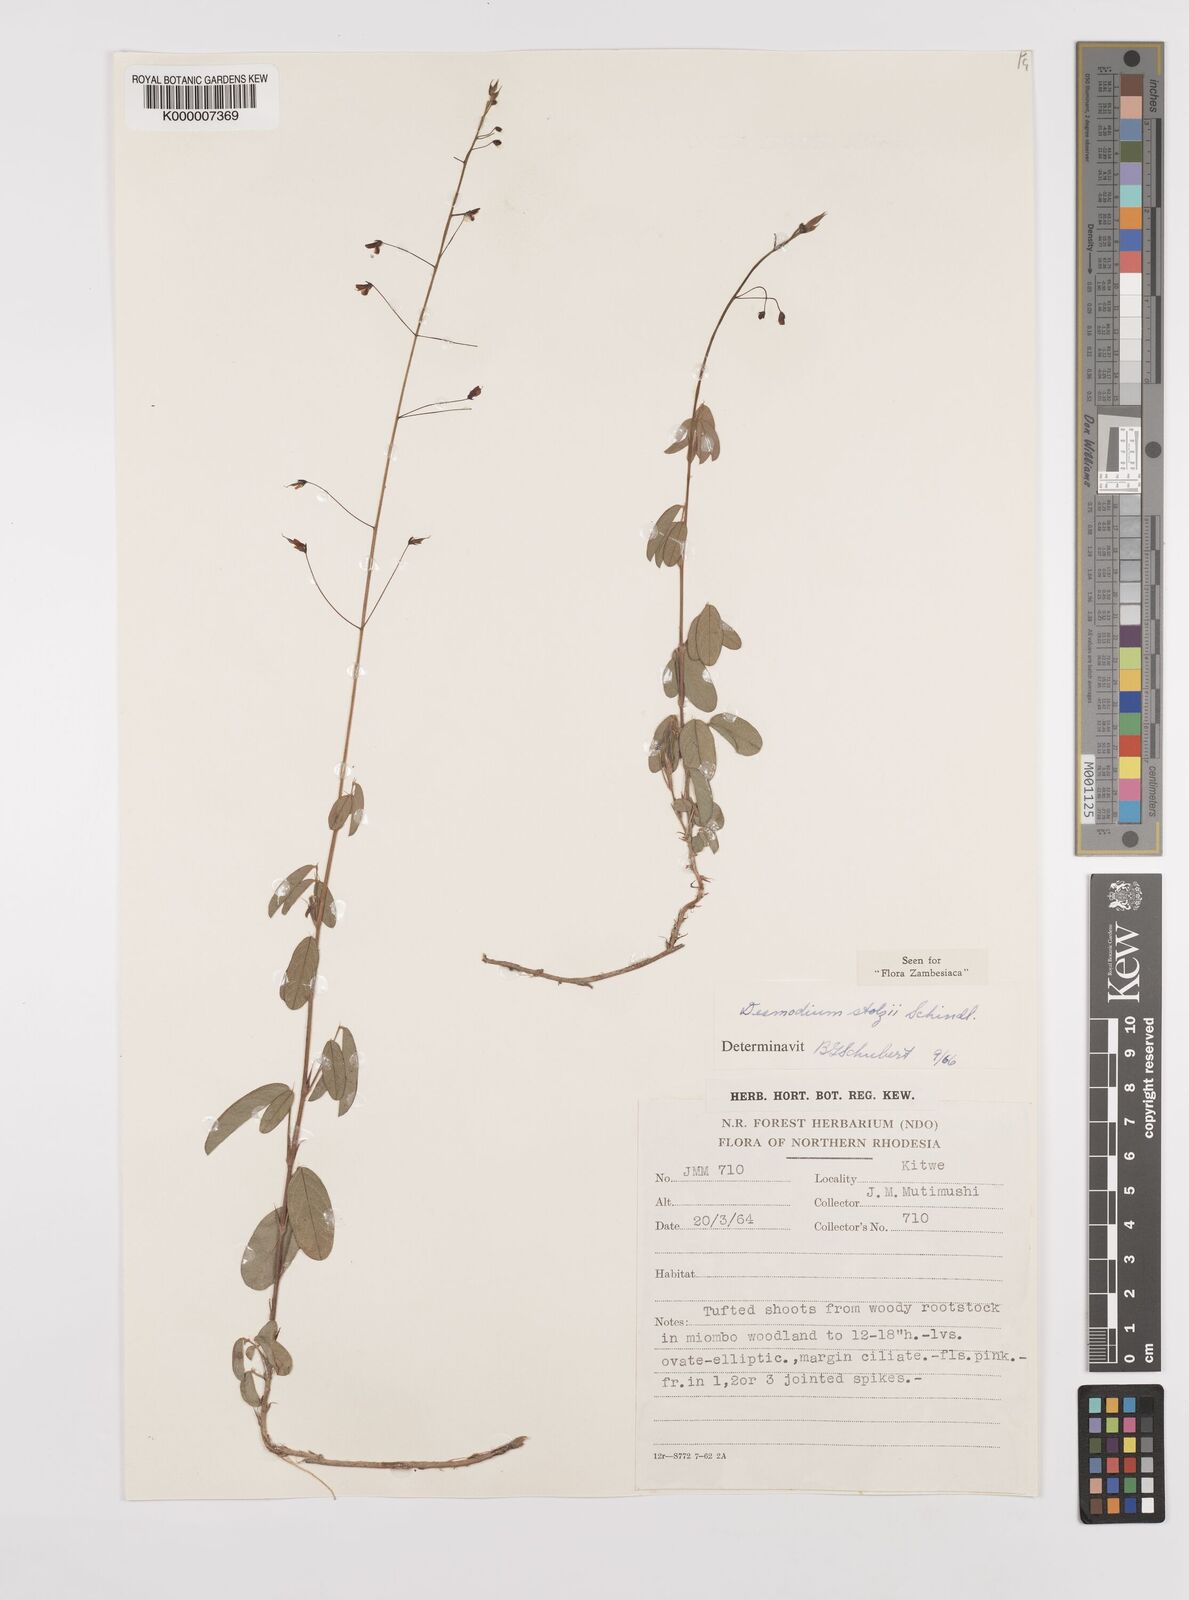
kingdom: Plantae
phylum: Tracheophyta
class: Magnoliopsida
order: Fabales
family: Fabaceae
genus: Grona
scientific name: Grona stolzii
